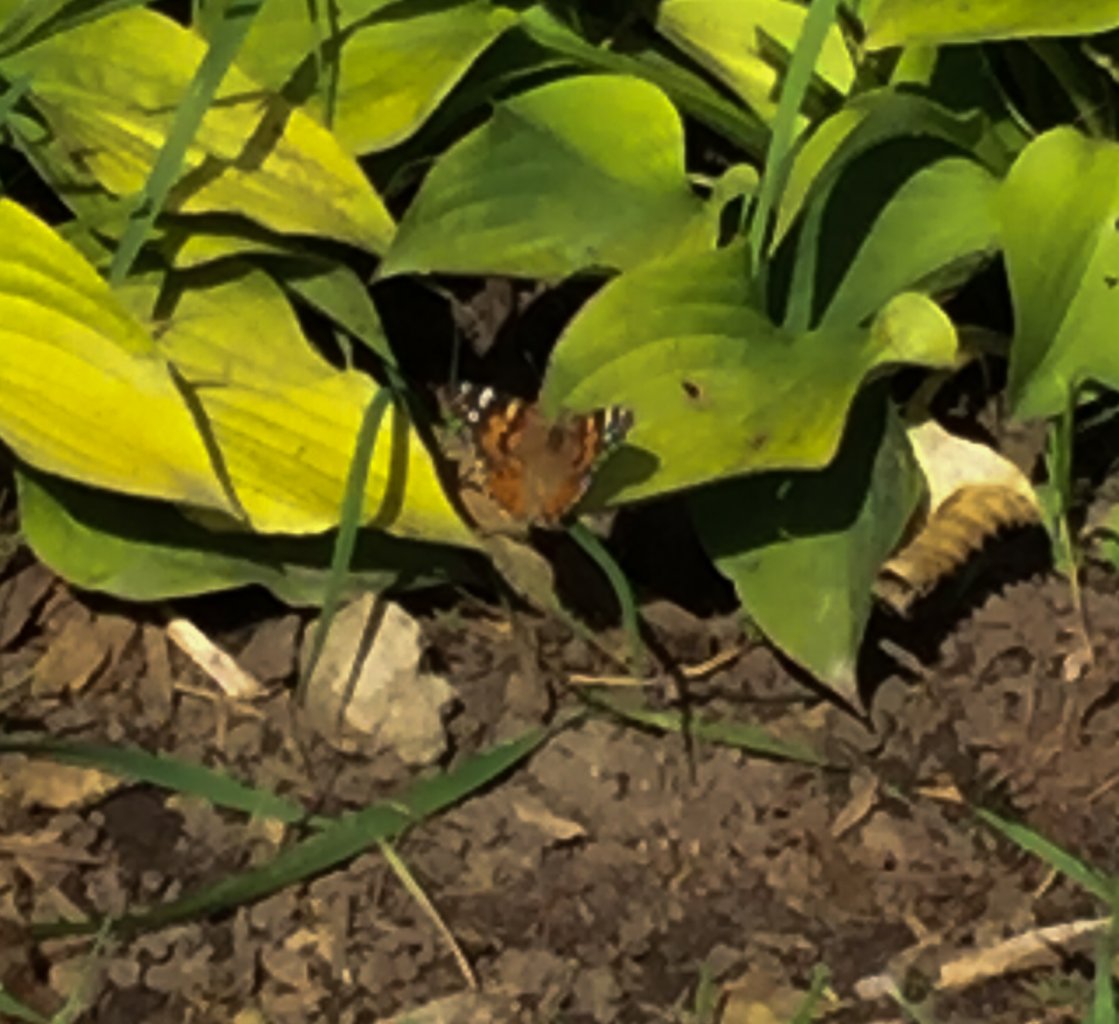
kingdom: Animalia
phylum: Arthropoda
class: Insecta
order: Lepidoptera
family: Nymphalidae
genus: Vanessa
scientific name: Vanessa cardui
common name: Painted Lady
